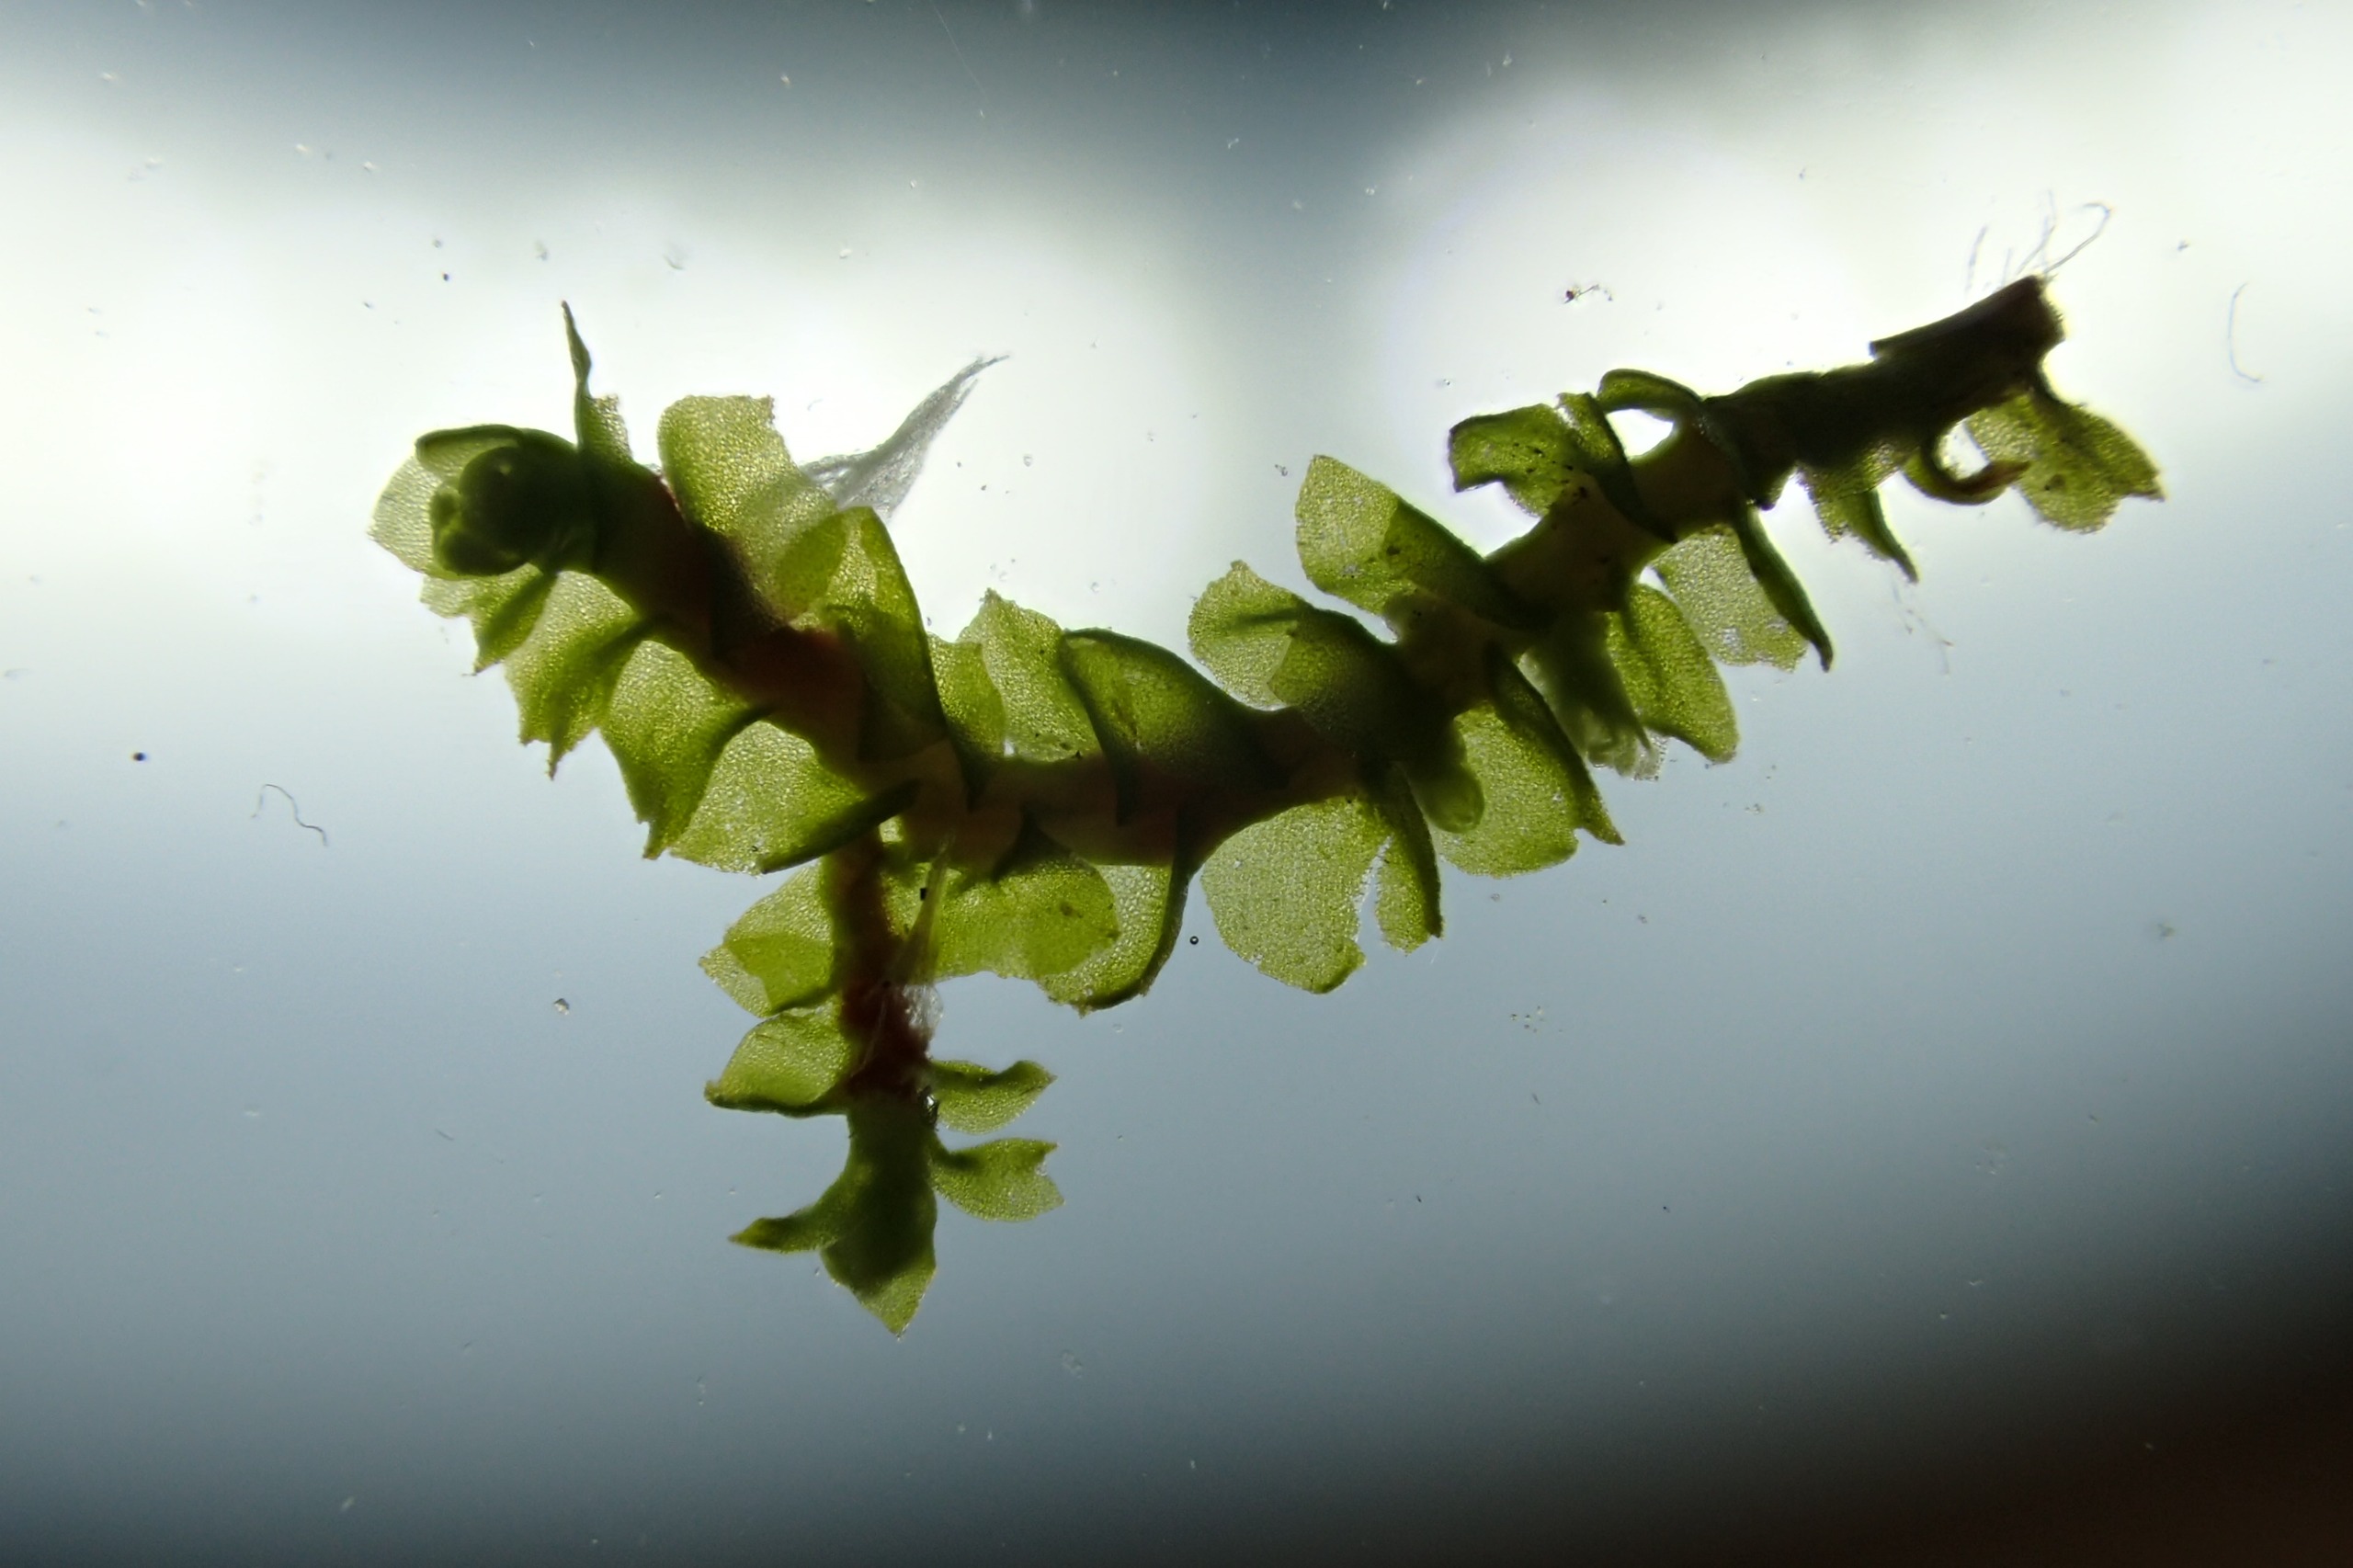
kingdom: Plantae
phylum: Marchantiophyta
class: Jungermanniopsida
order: Jungermanniales
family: Lophoziaceae
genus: Lophozia
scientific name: Lophozia ventricosa
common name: Grønkornet foldbæger
